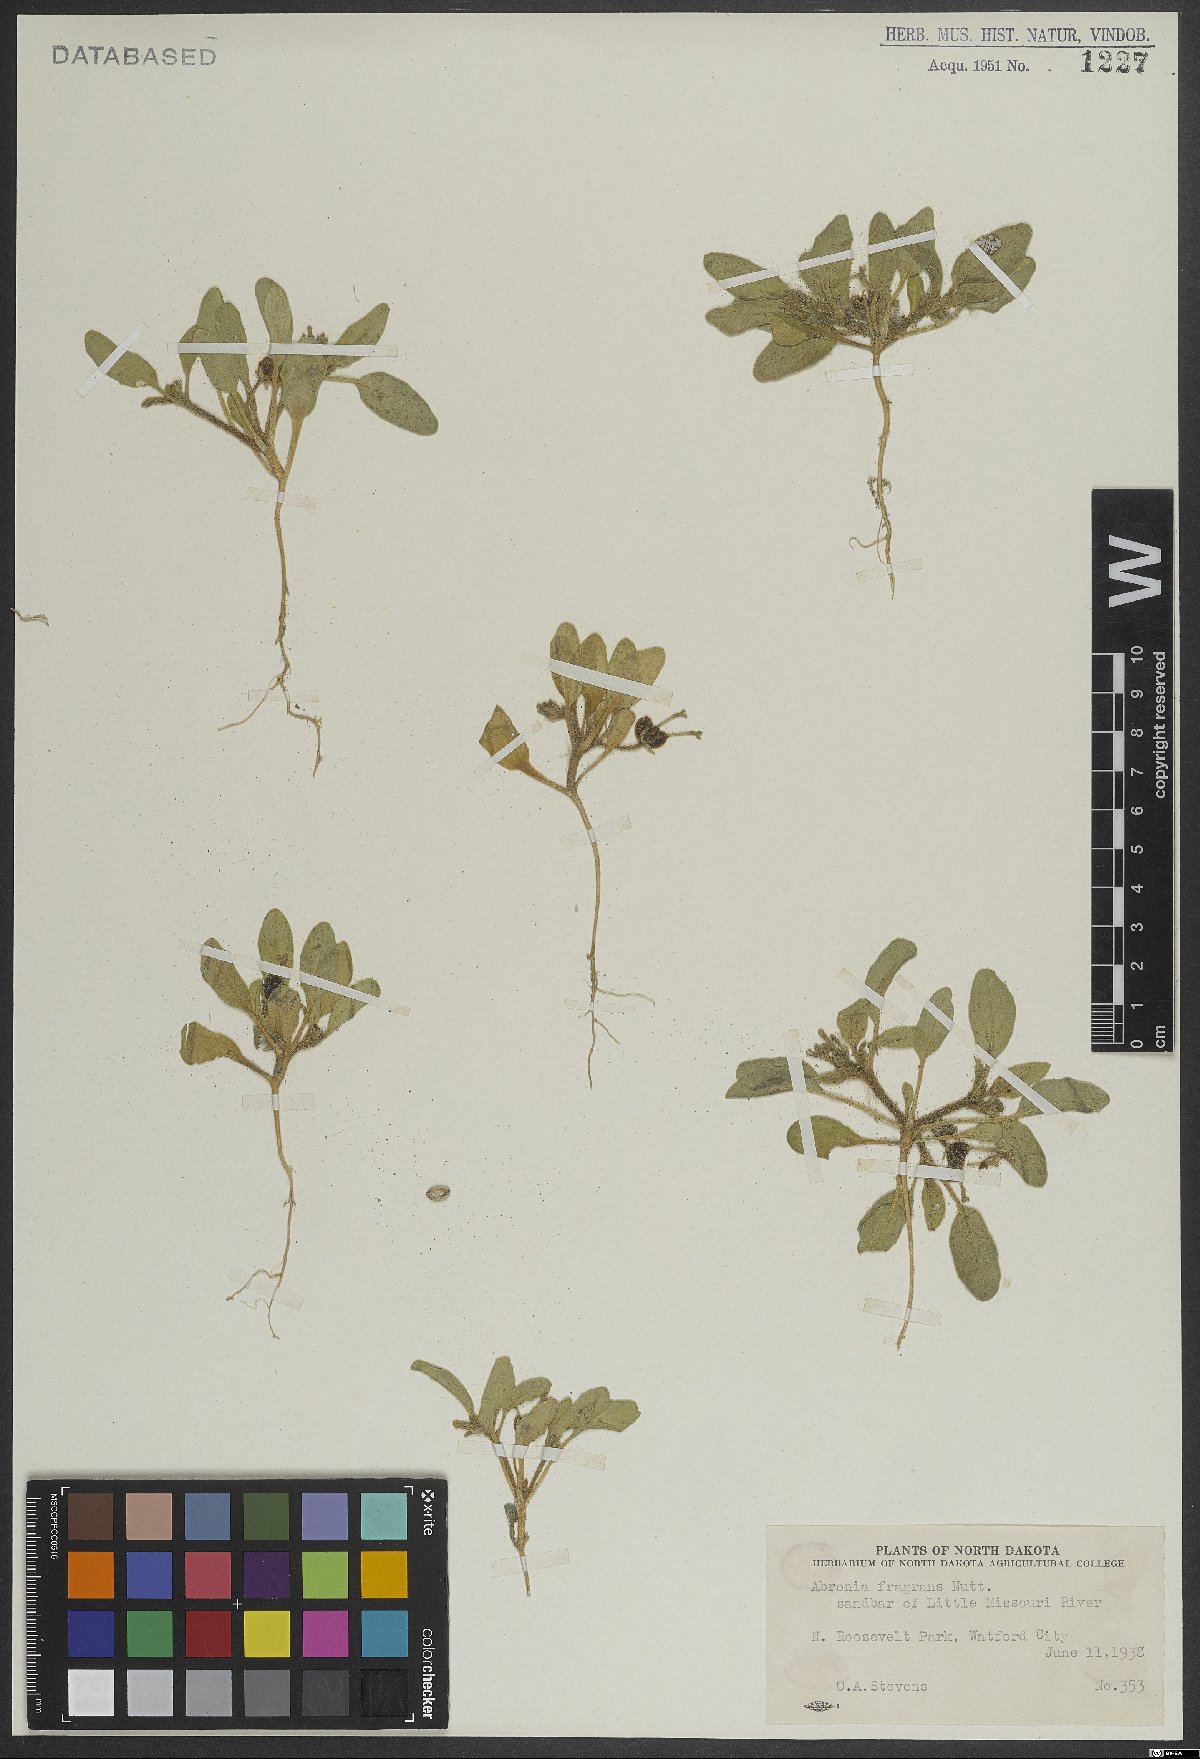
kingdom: Plantae
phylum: Tracheophyta
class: Magnoliopsida
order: Caryophyllales
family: Nyctaginaceae
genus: Abronia
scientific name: Abronia fragrans
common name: Fragrant sand-verbena
